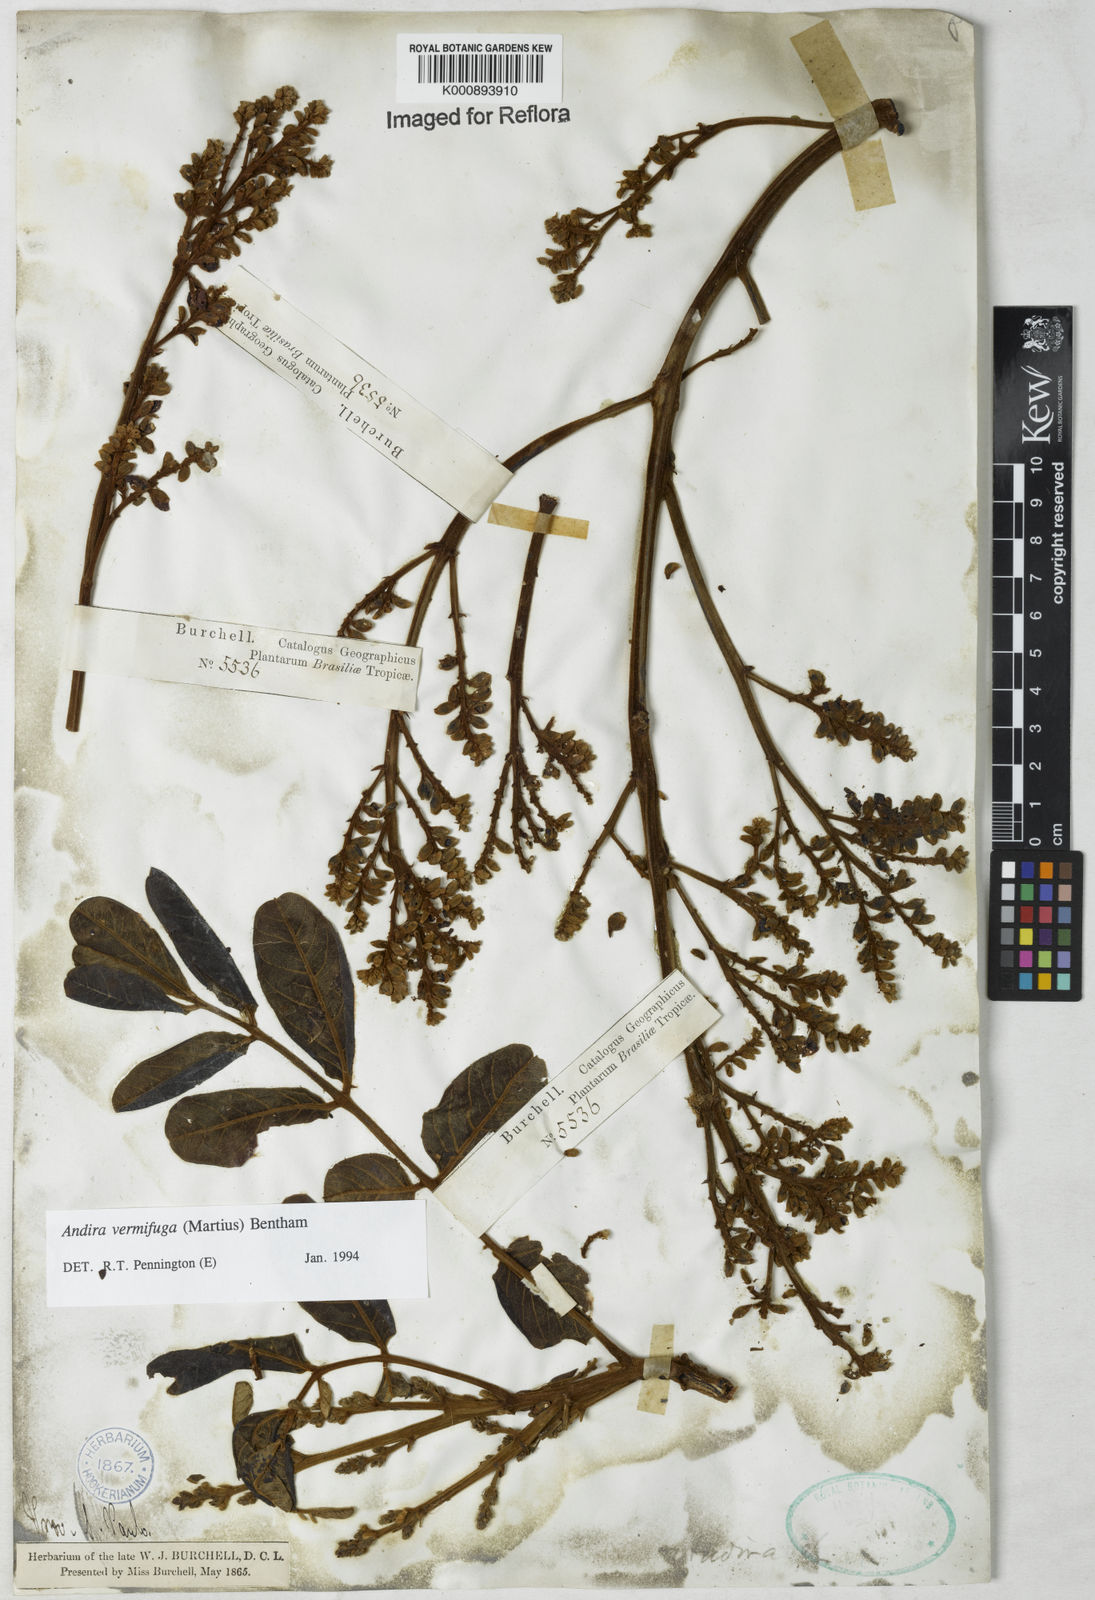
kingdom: Plantae
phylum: Tracheophyta
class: Magnoliopsida
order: Fabales
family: Fabaceae
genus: Andira
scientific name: Andira vermifuga
